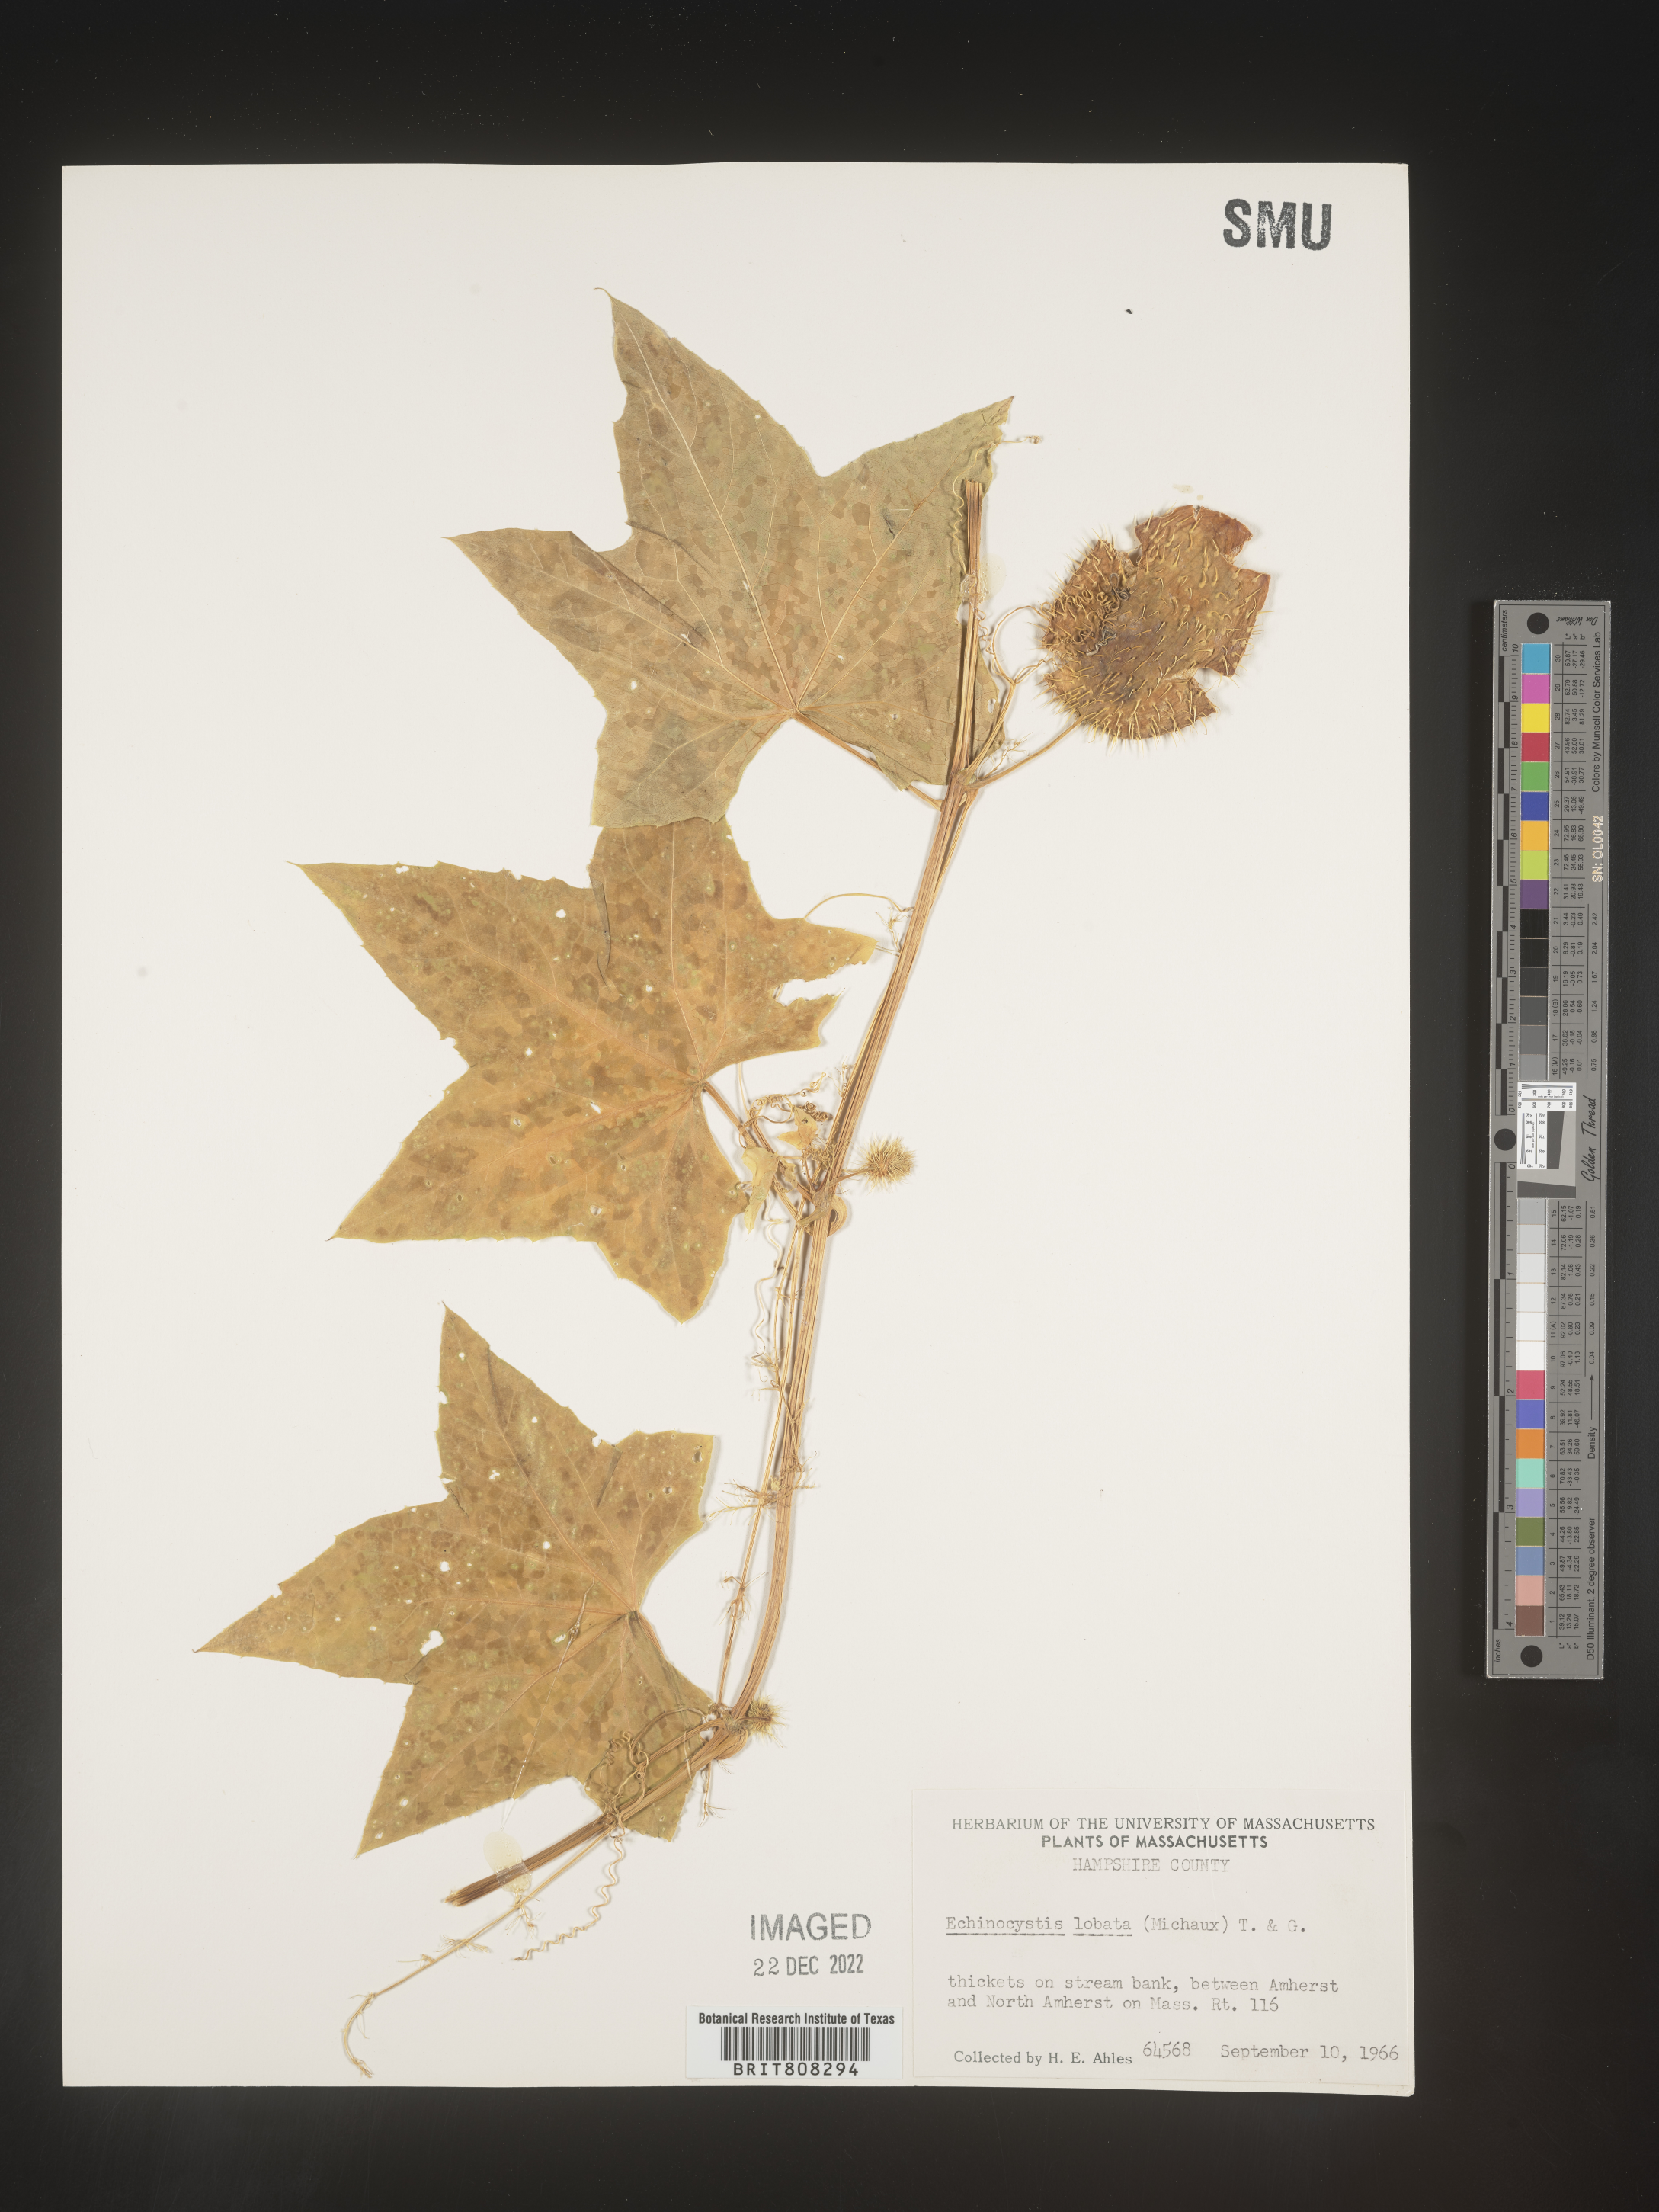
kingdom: Plantae
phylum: Tracheophyta
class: Magnoliopsida
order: Cucurbitales
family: Cucurbitaceae
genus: Echinocystis
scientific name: Echinocystis
